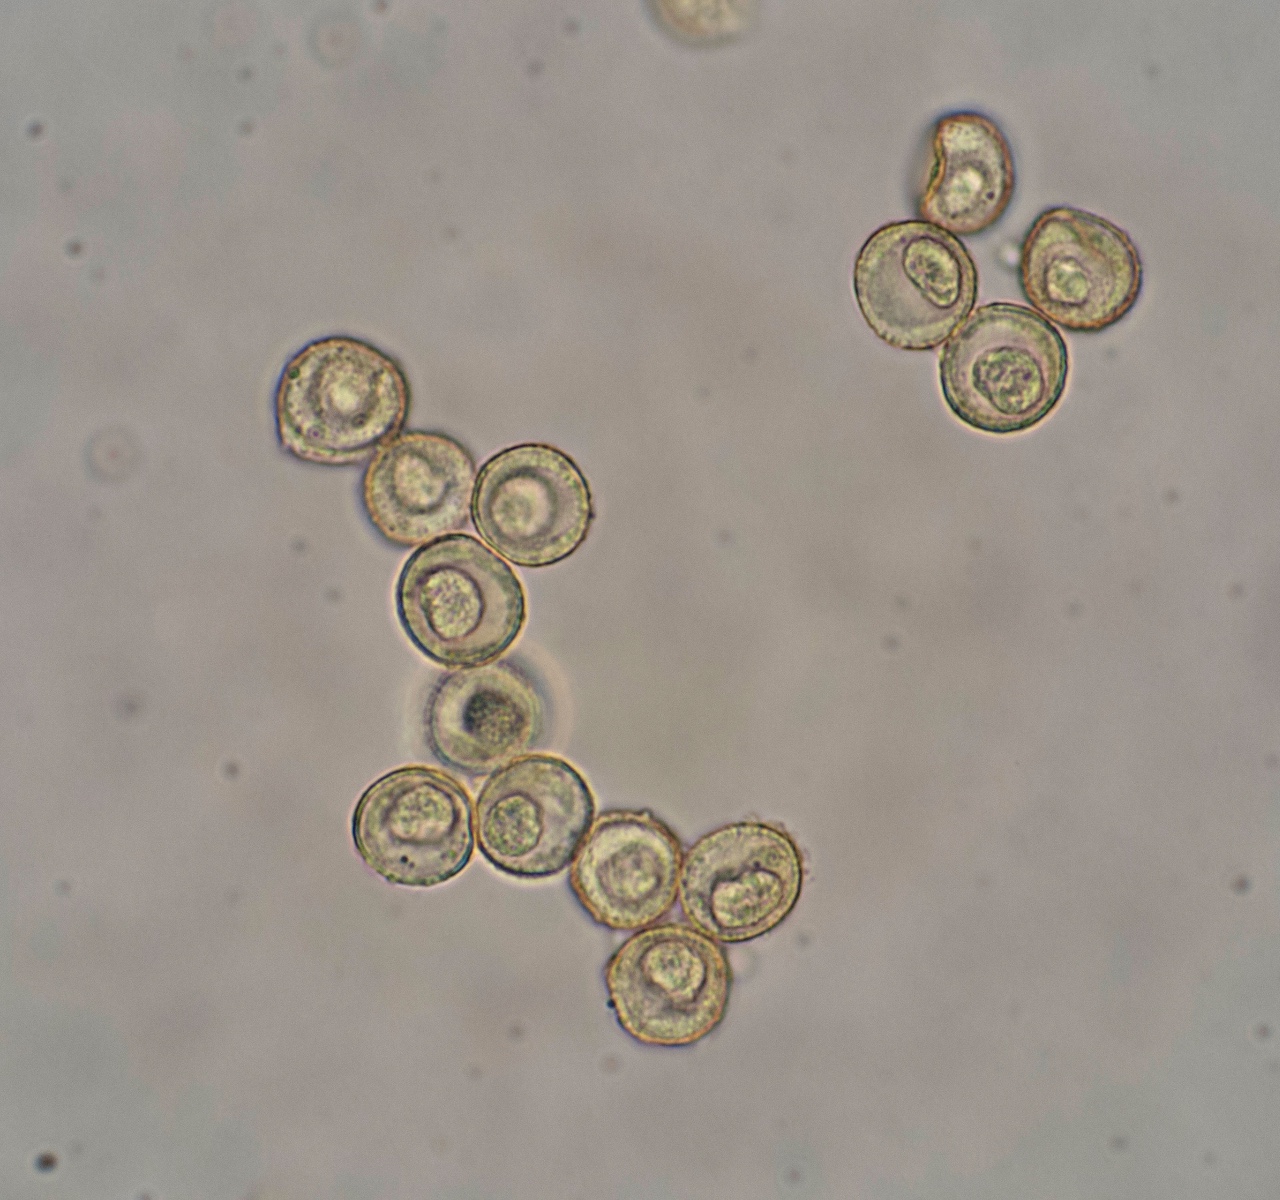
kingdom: Protozoa
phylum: Mycetozoa
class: Myxomycetes
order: Trichiales
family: Trichiaceae
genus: Trichia
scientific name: Trichia varia
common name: foranderlig hårbold
